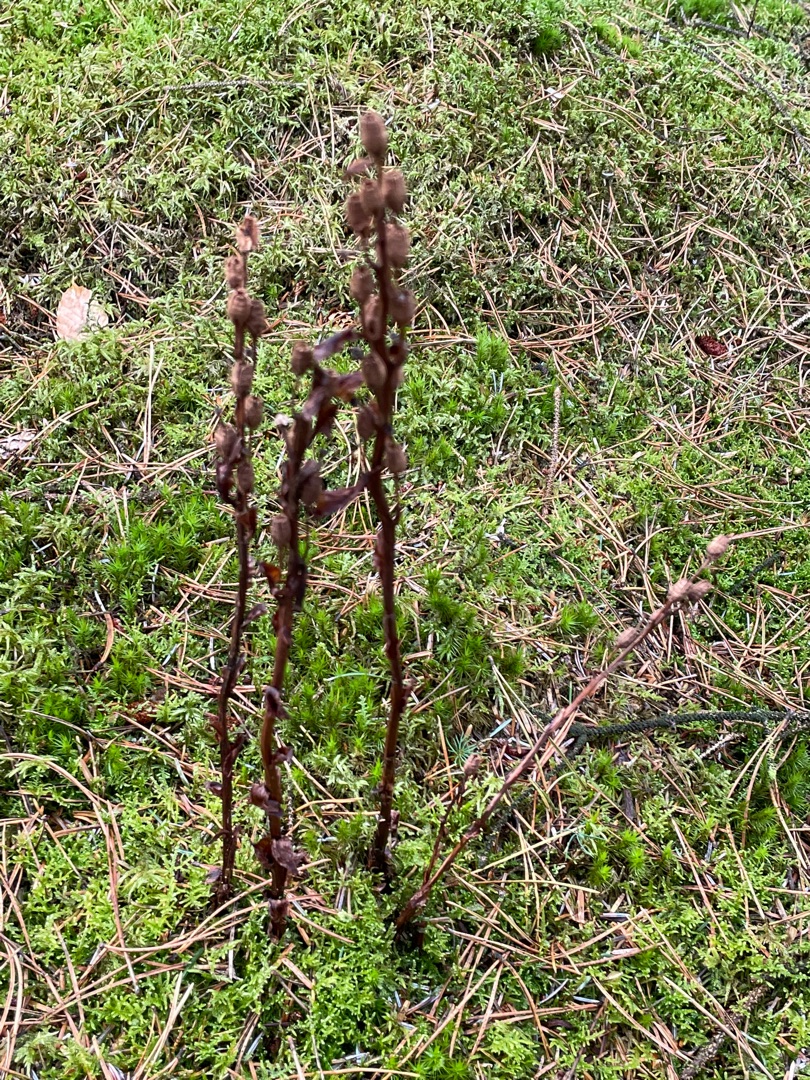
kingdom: Plantae
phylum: Tracheophyta
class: Magnoliopsida
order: Ericales
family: Ericaceae
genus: Hypopitys
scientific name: Hypopitys monotropa
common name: Snylterod
